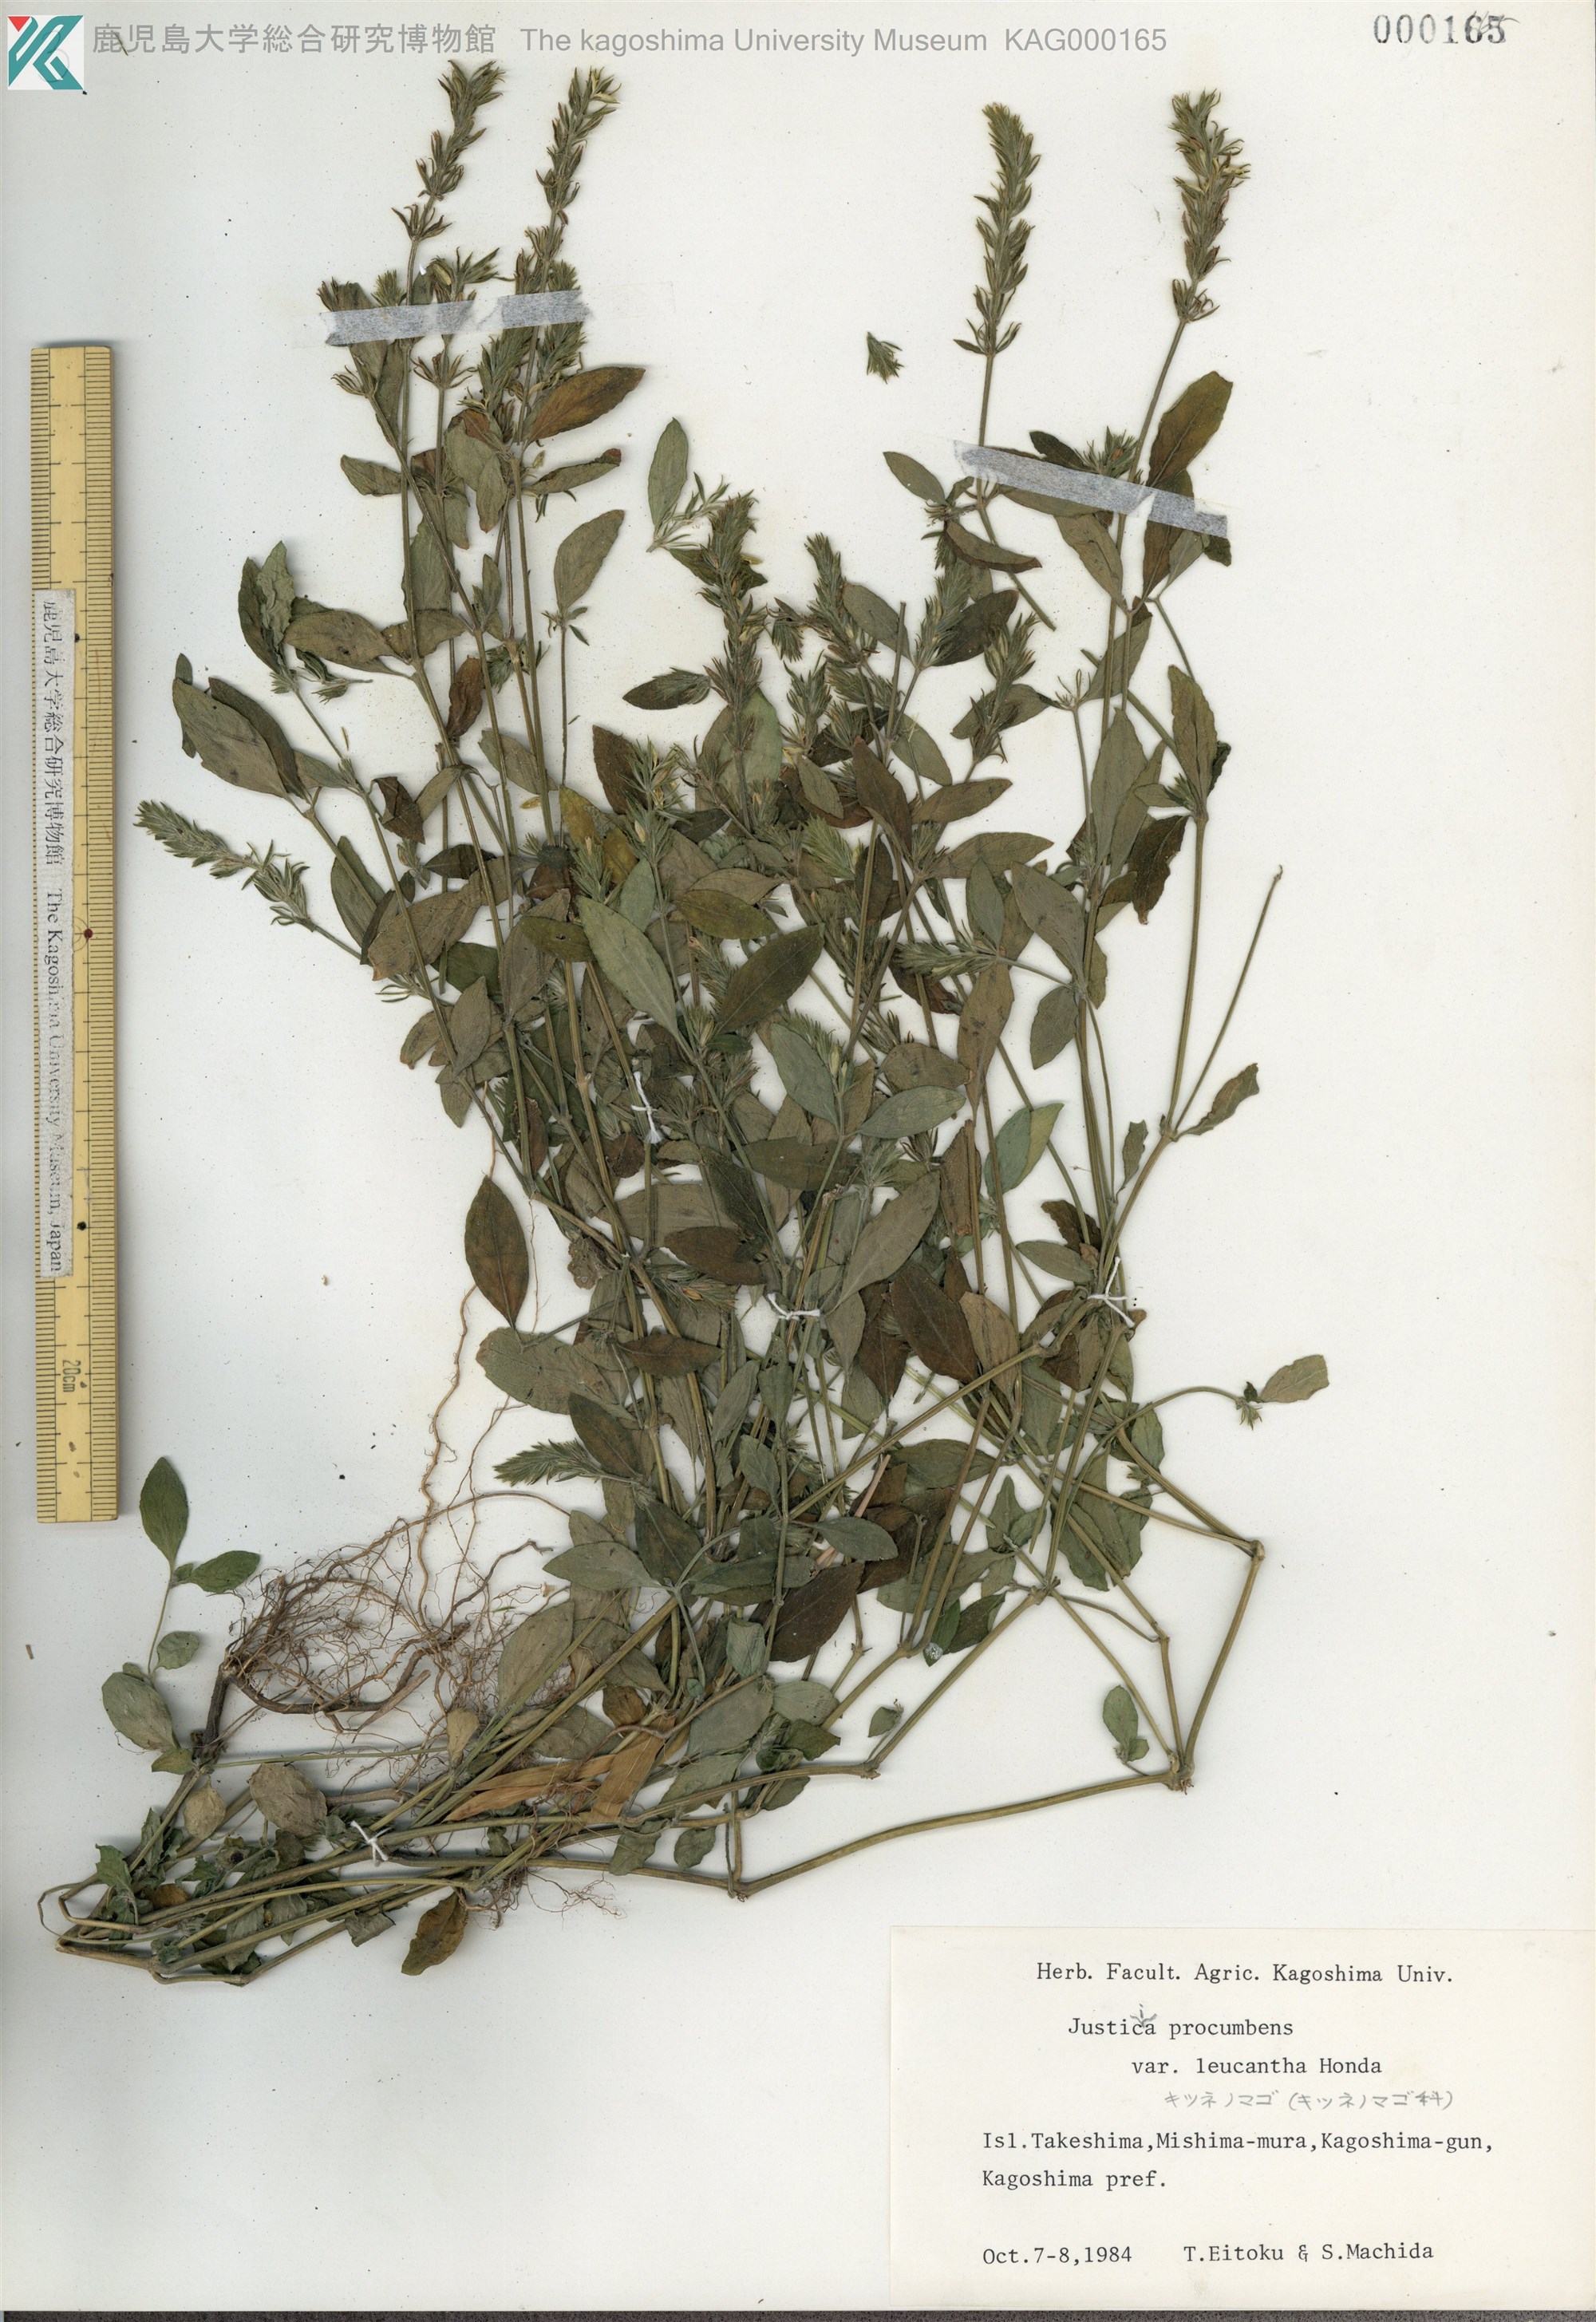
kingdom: Plantae
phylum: Tracheophyta
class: Magnoliopsida
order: Lamiales
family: Acanthaceae
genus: Rostellularia
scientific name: Rostellularia procumbens
